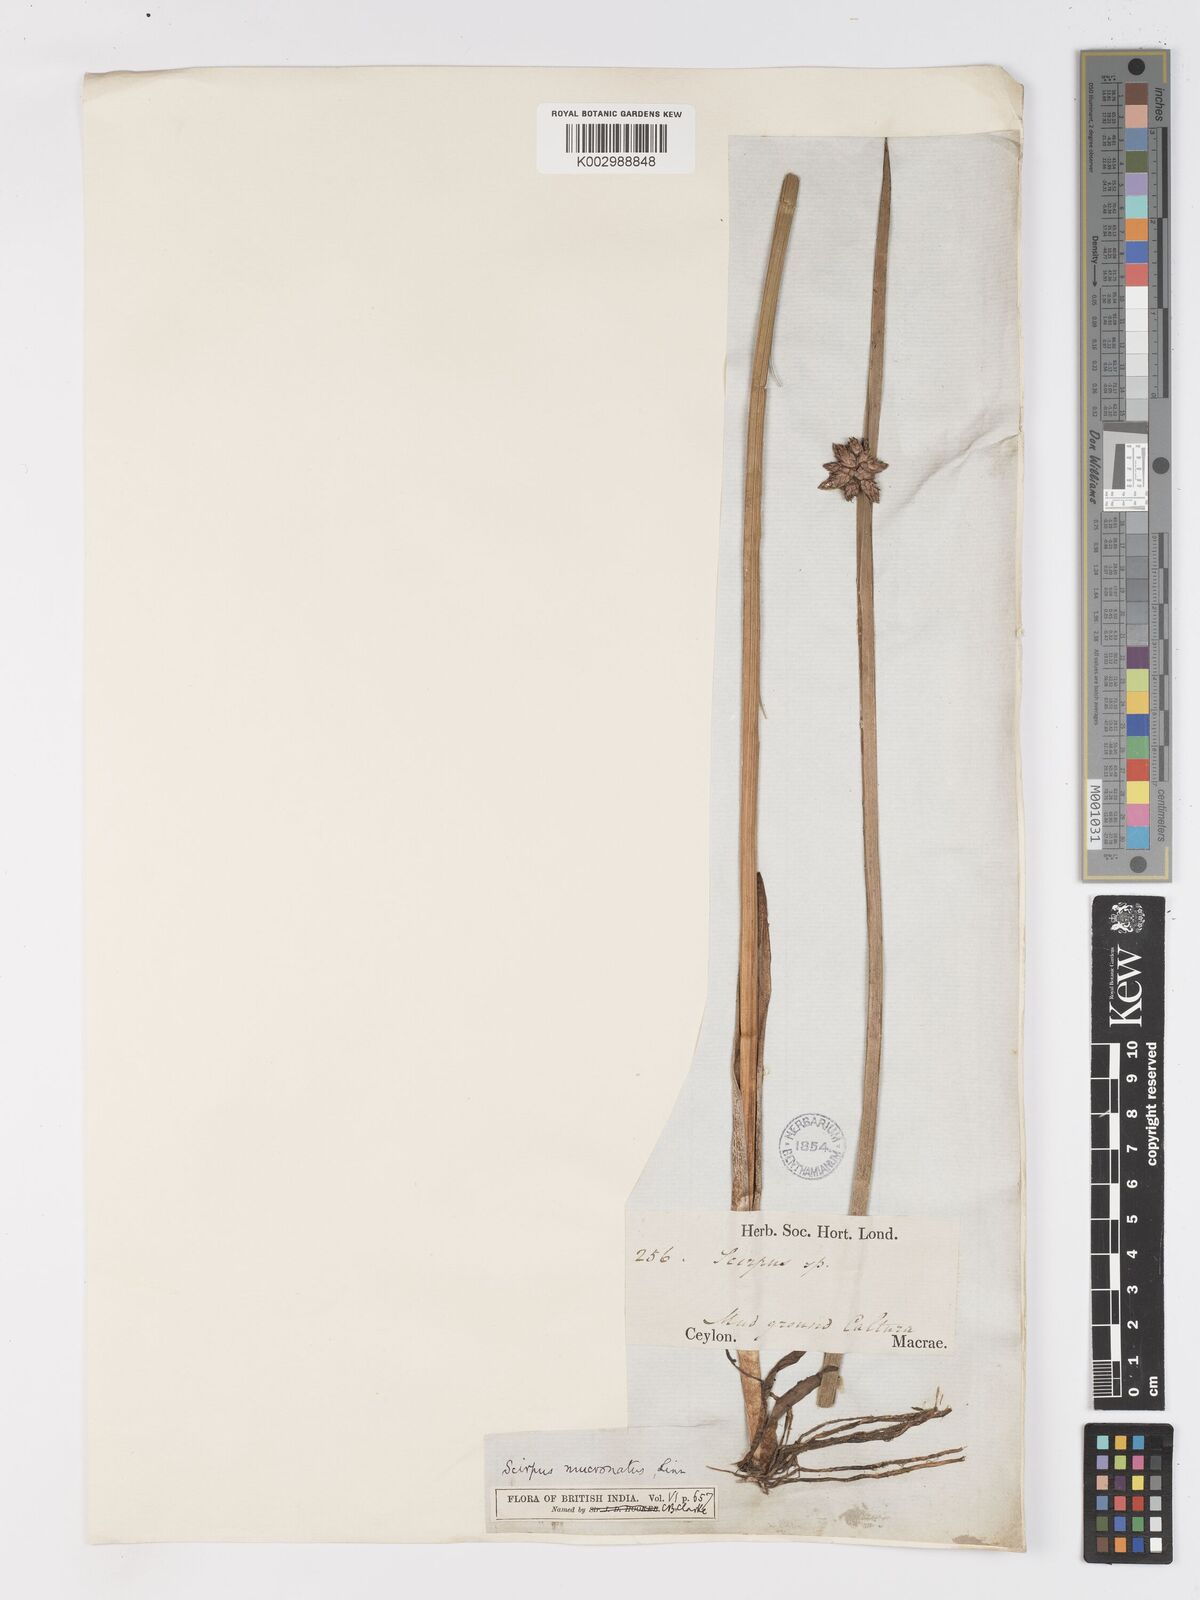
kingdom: Plantae
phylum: Tracheophyta
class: Liliopsida
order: Poales
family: Cyperaceae
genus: Schoenoplectiella
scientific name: Schoenoplectiella mucronata
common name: Bog bulrush
